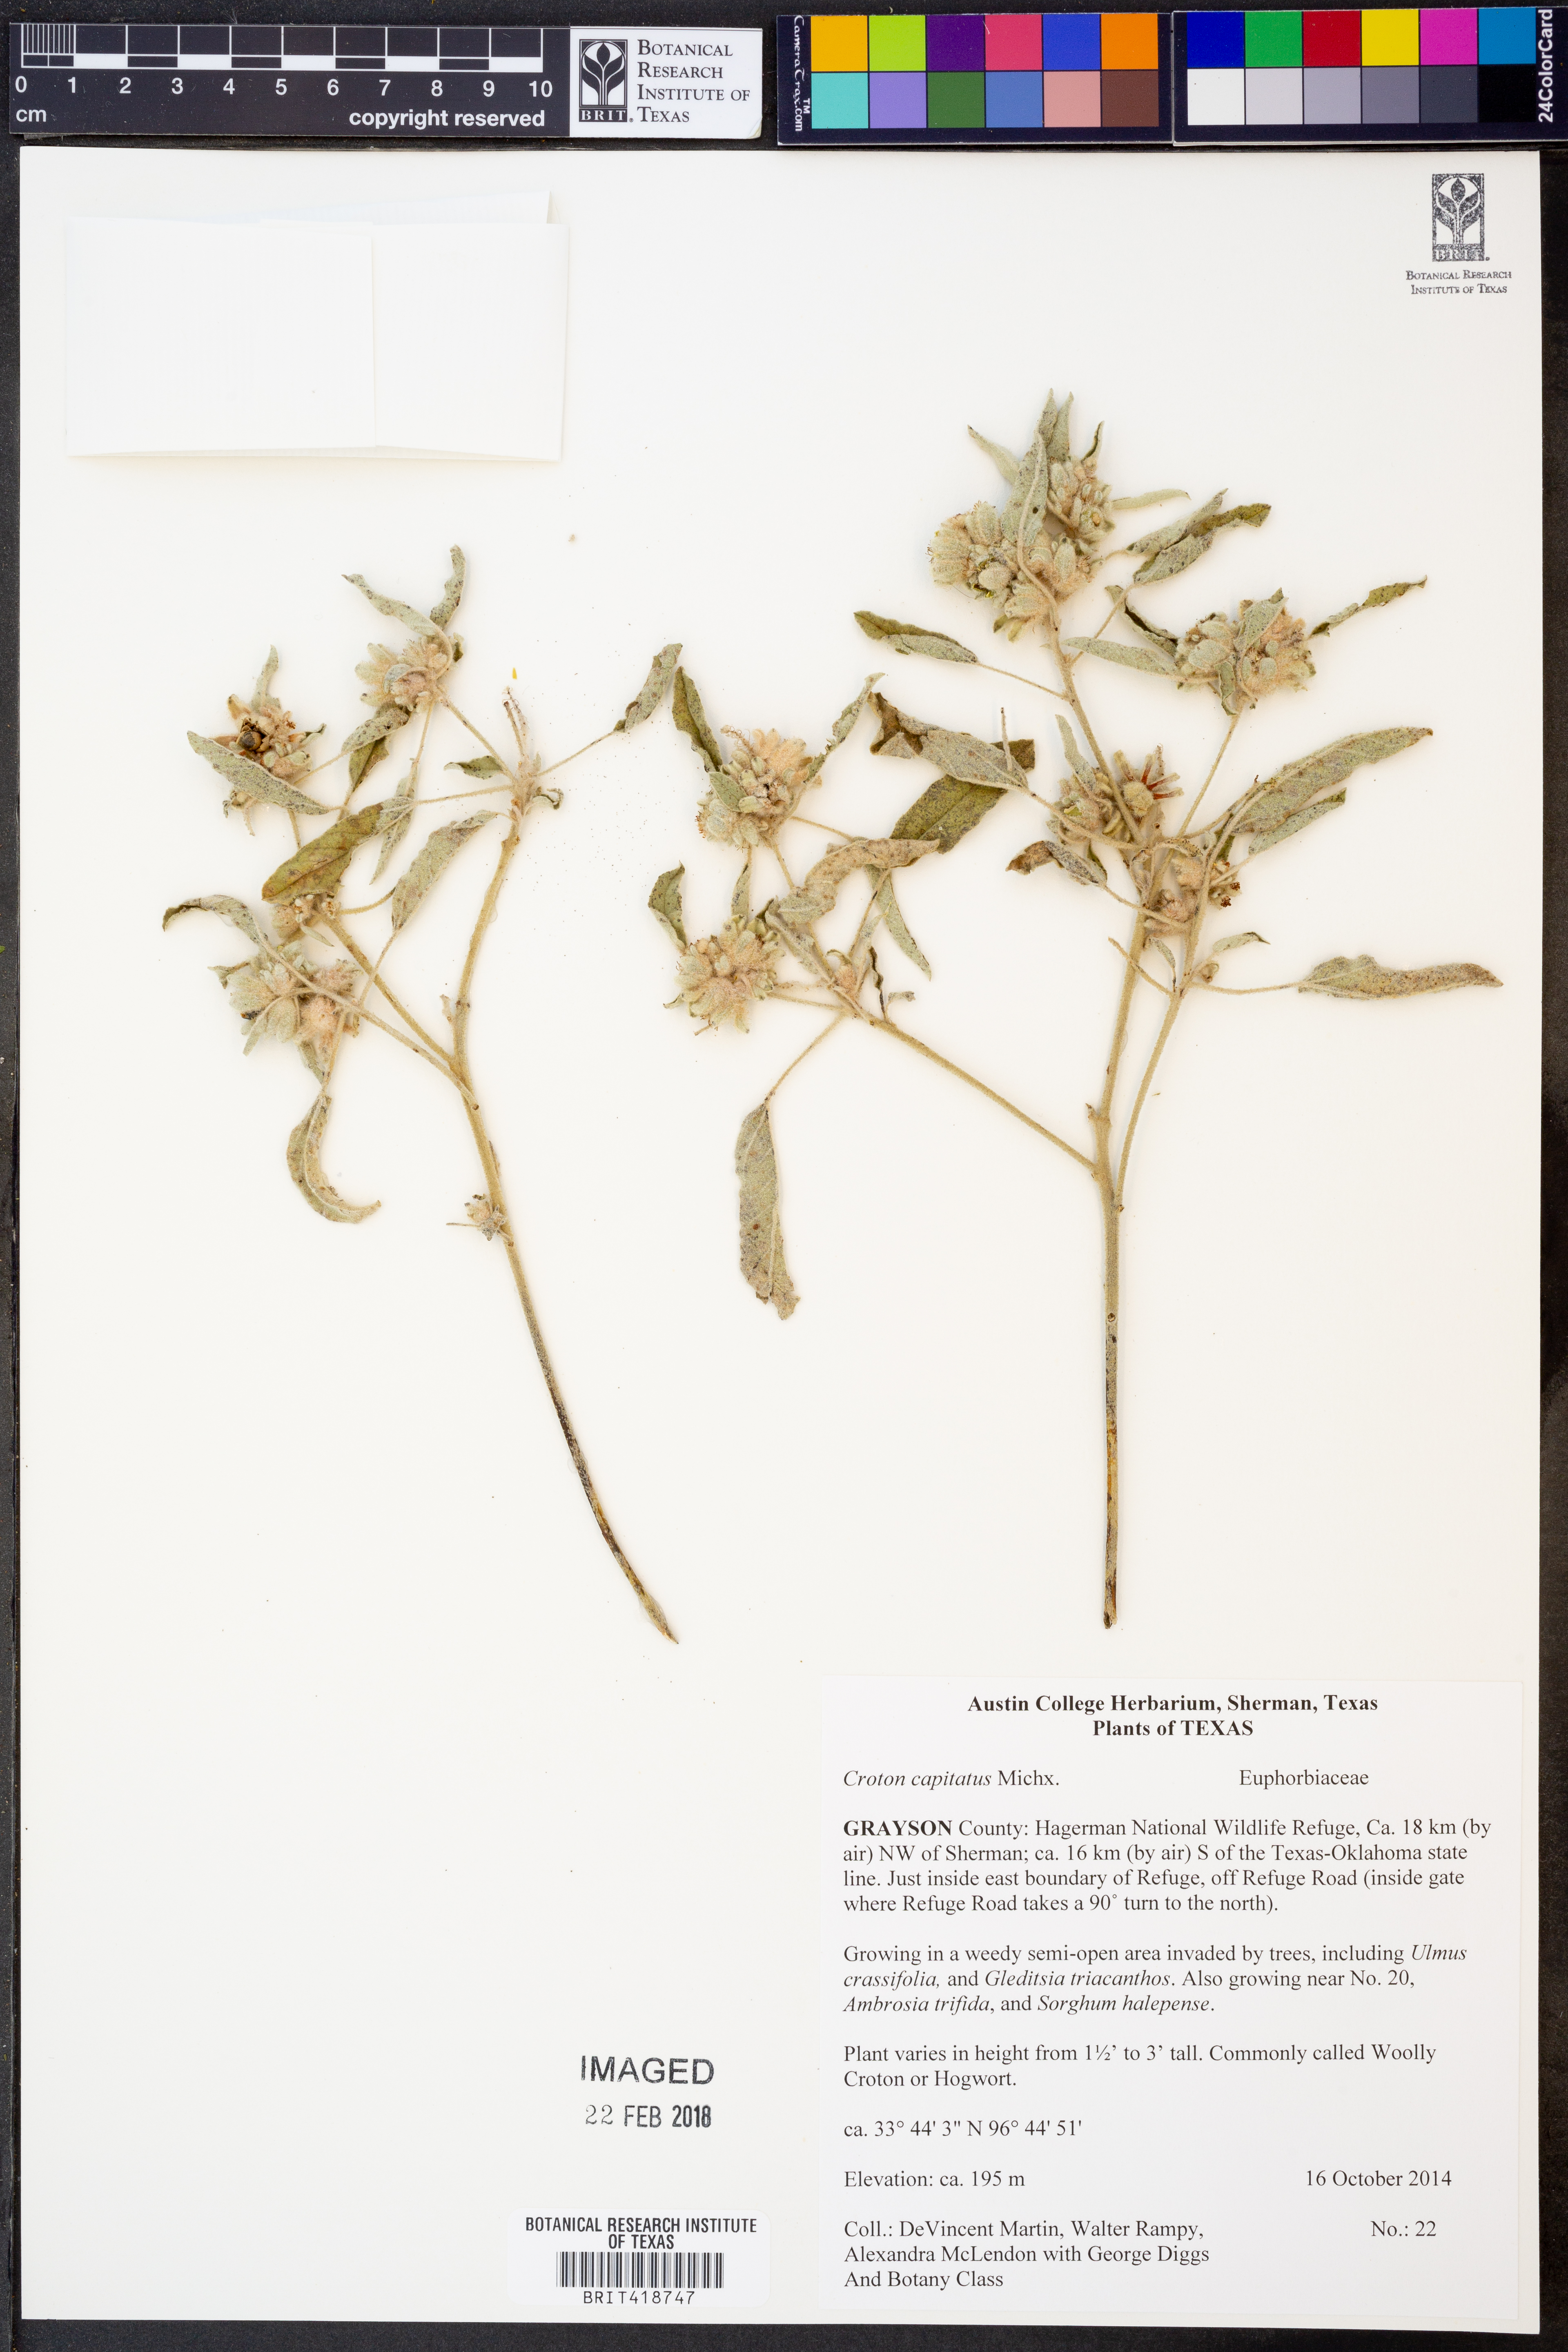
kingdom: Plantae
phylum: Tracheophyta
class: Magnoliopsida
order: Malpighiales
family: Euphorbiaceae
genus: Croton
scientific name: Croton capitatus
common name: Woolly croton
